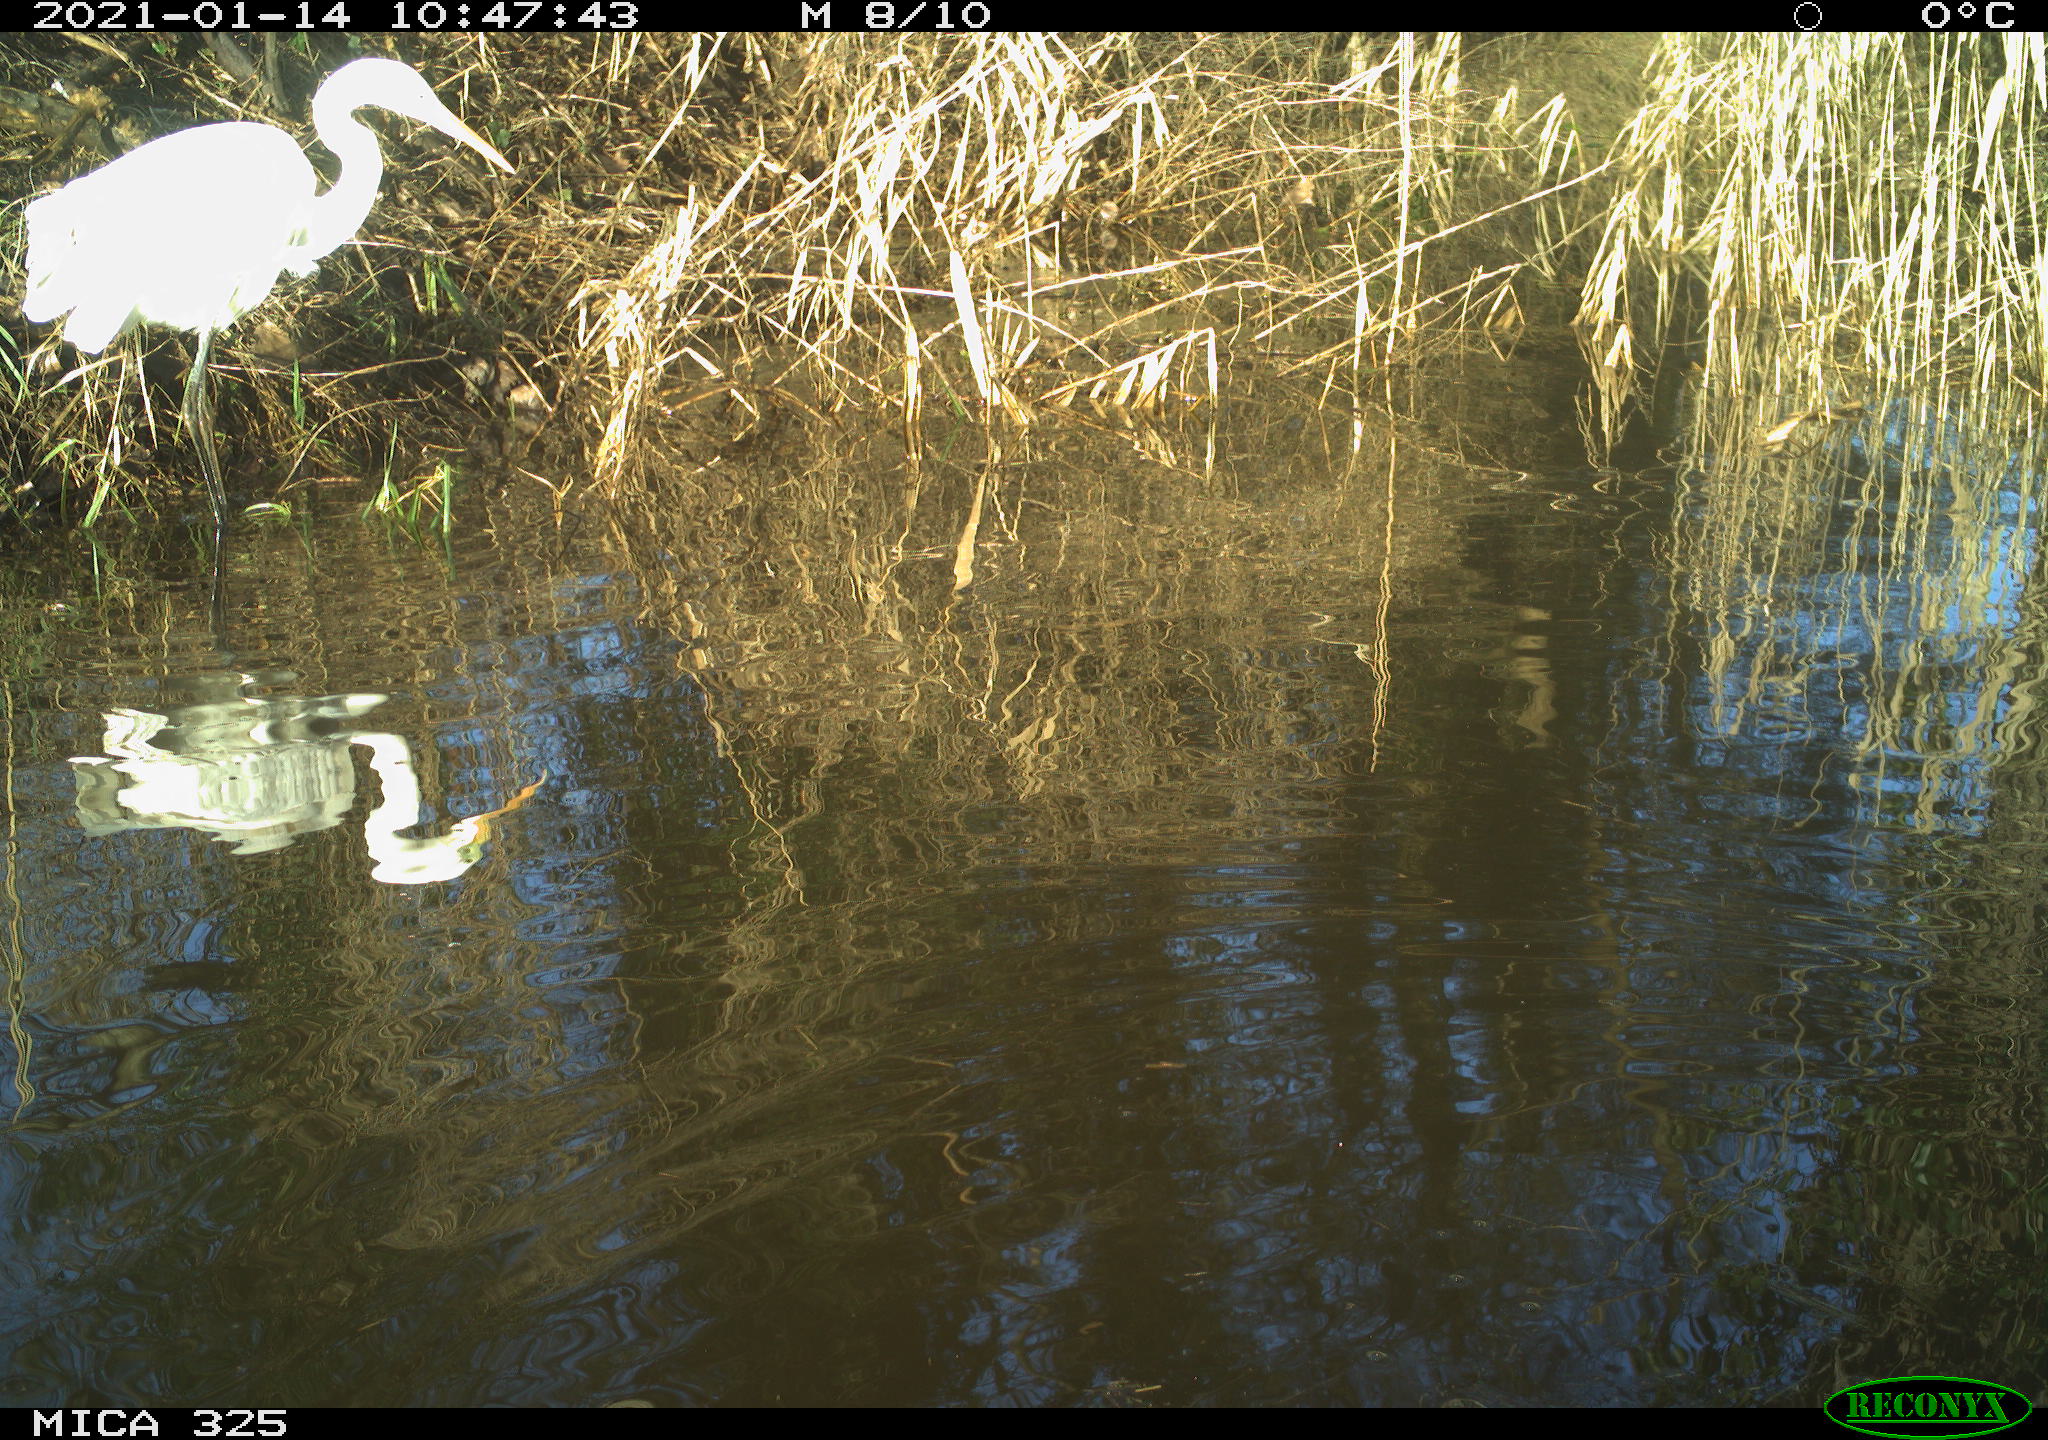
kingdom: Animalia
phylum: Chordata
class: Aves
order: Pelecaniformes
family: Ardeidae
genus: Ardea
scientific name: Ardea alba
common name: Great egret
